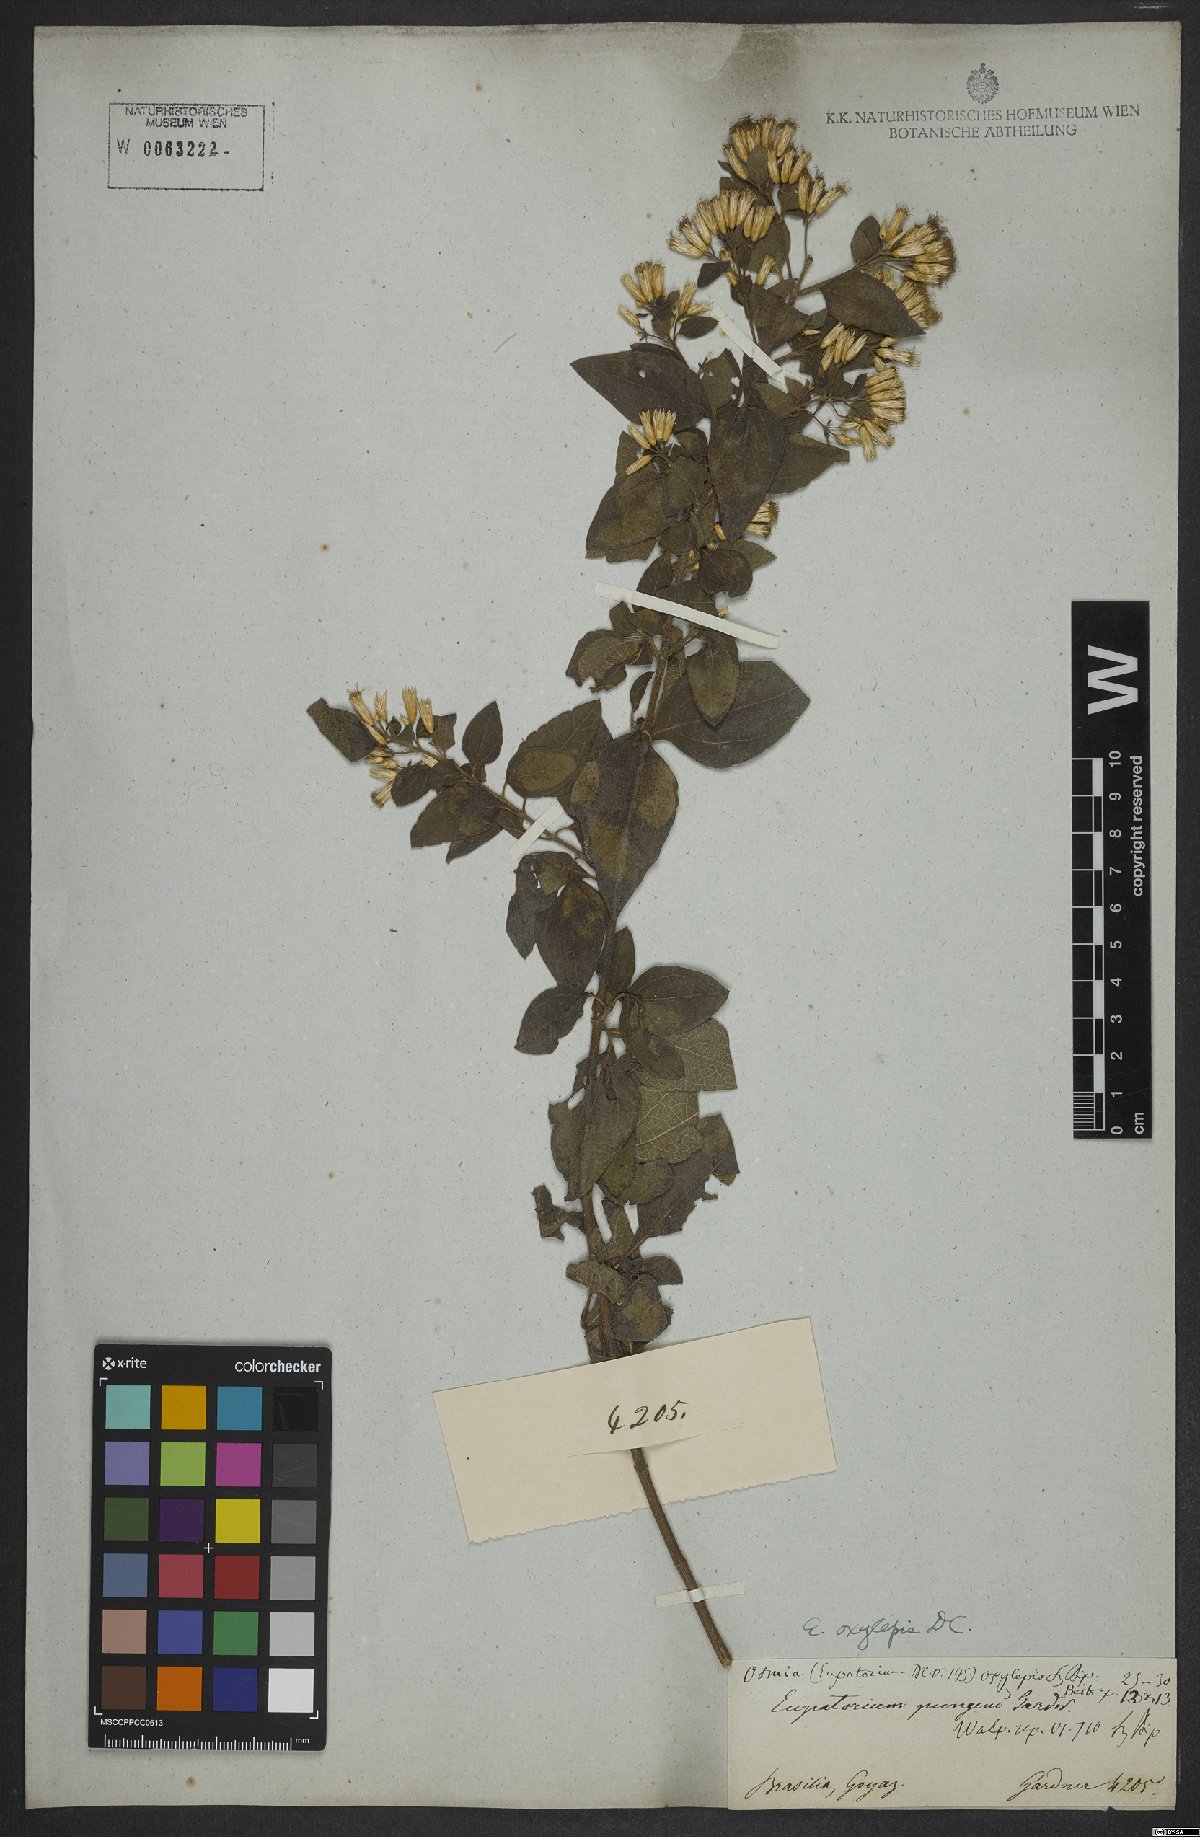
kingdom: Plantae
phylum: Tracheophyta
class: Magnoliopsida
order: Asterales
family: Asteraceae
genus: Chromolaena
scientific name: Chromolaena oxylepis
